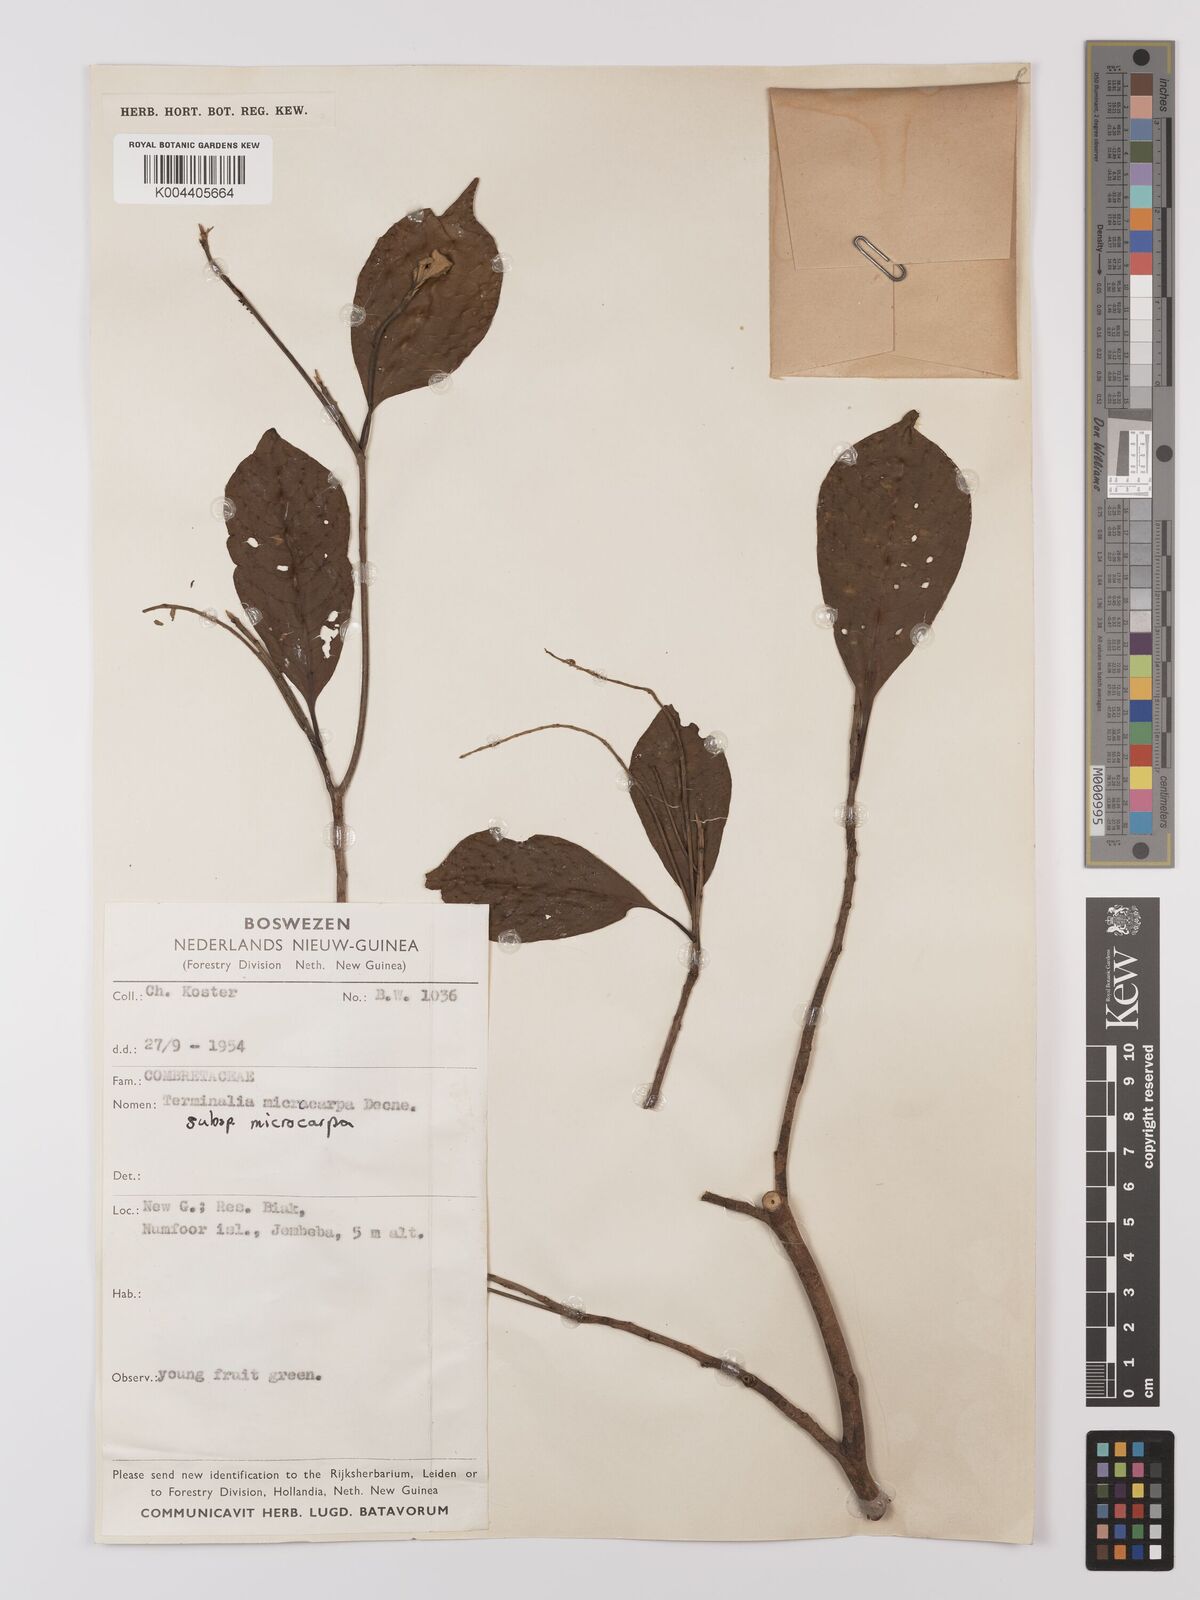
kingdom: Plantae
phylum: Tracheophyta
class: Magnoliopsida
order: Myrtales
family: Combretaceae
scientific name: Combretaceae
